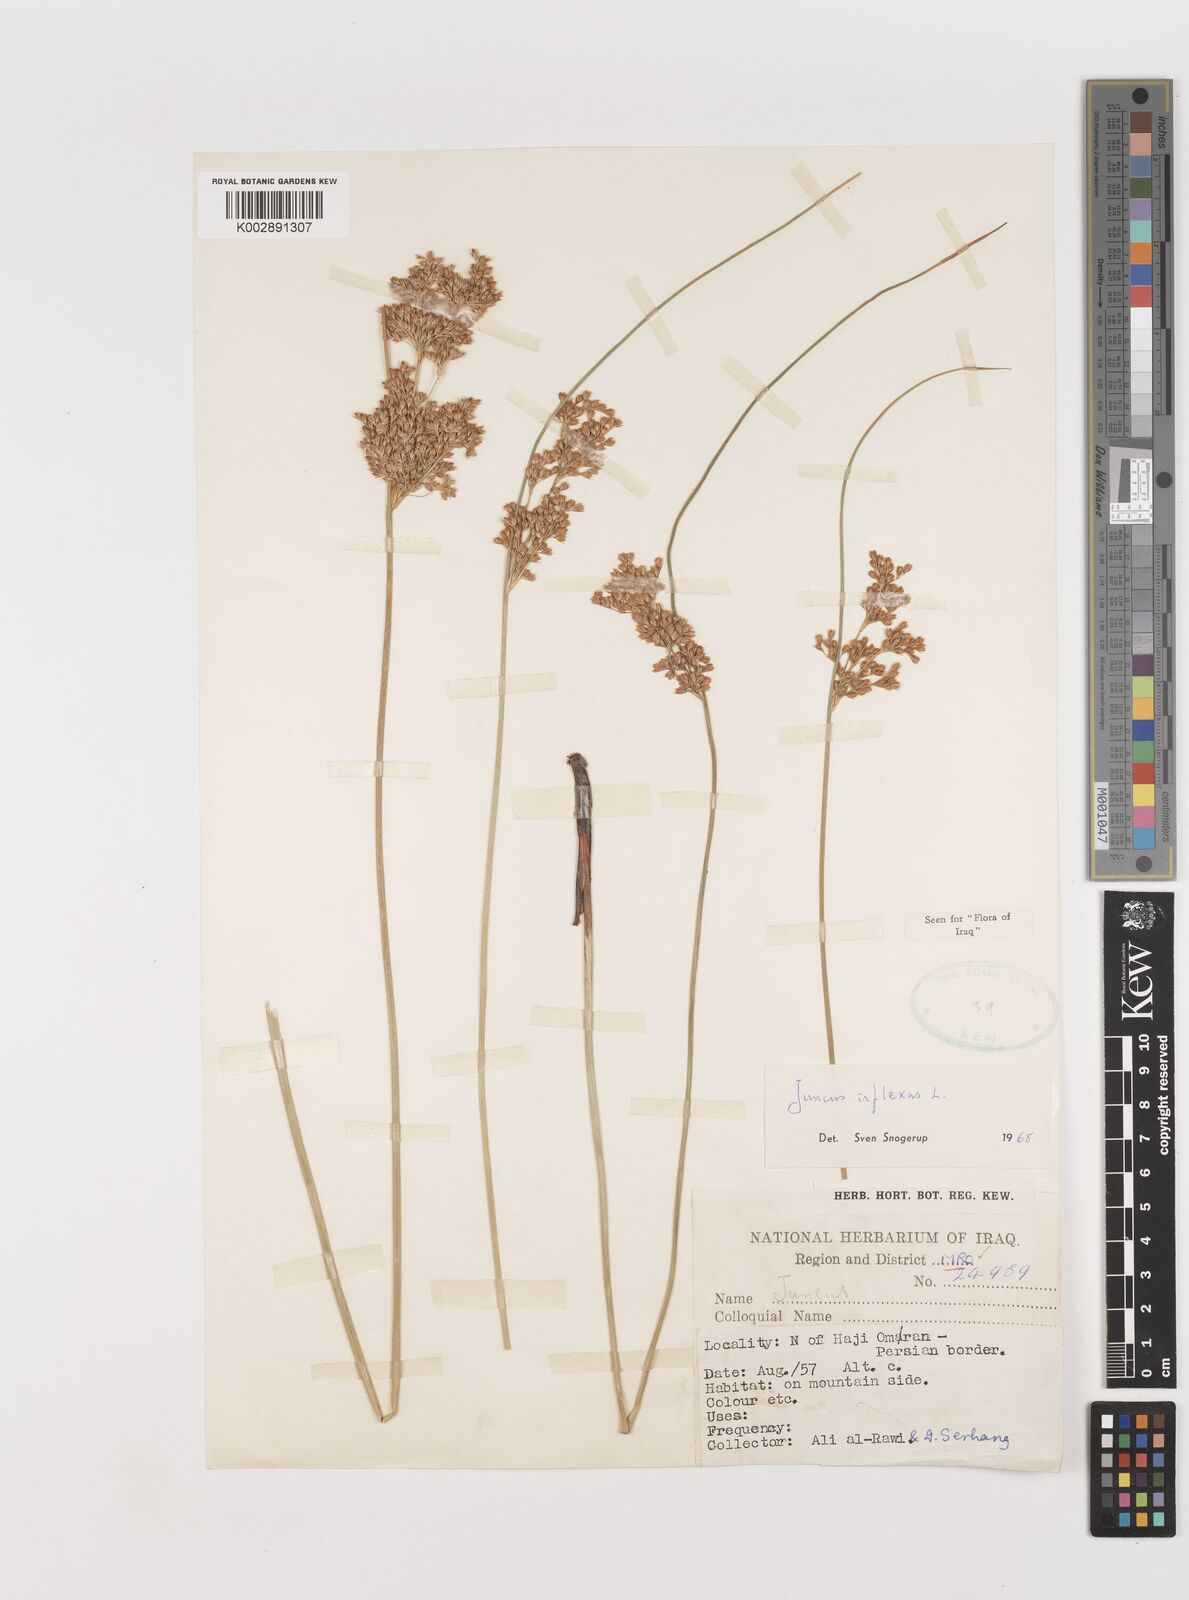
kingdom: Plantae
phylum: Tracheophyta
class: Liliopsida
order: Poales
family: Juncaceae
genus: Juncus
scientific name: Juncus inflexus
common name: Hard rush
